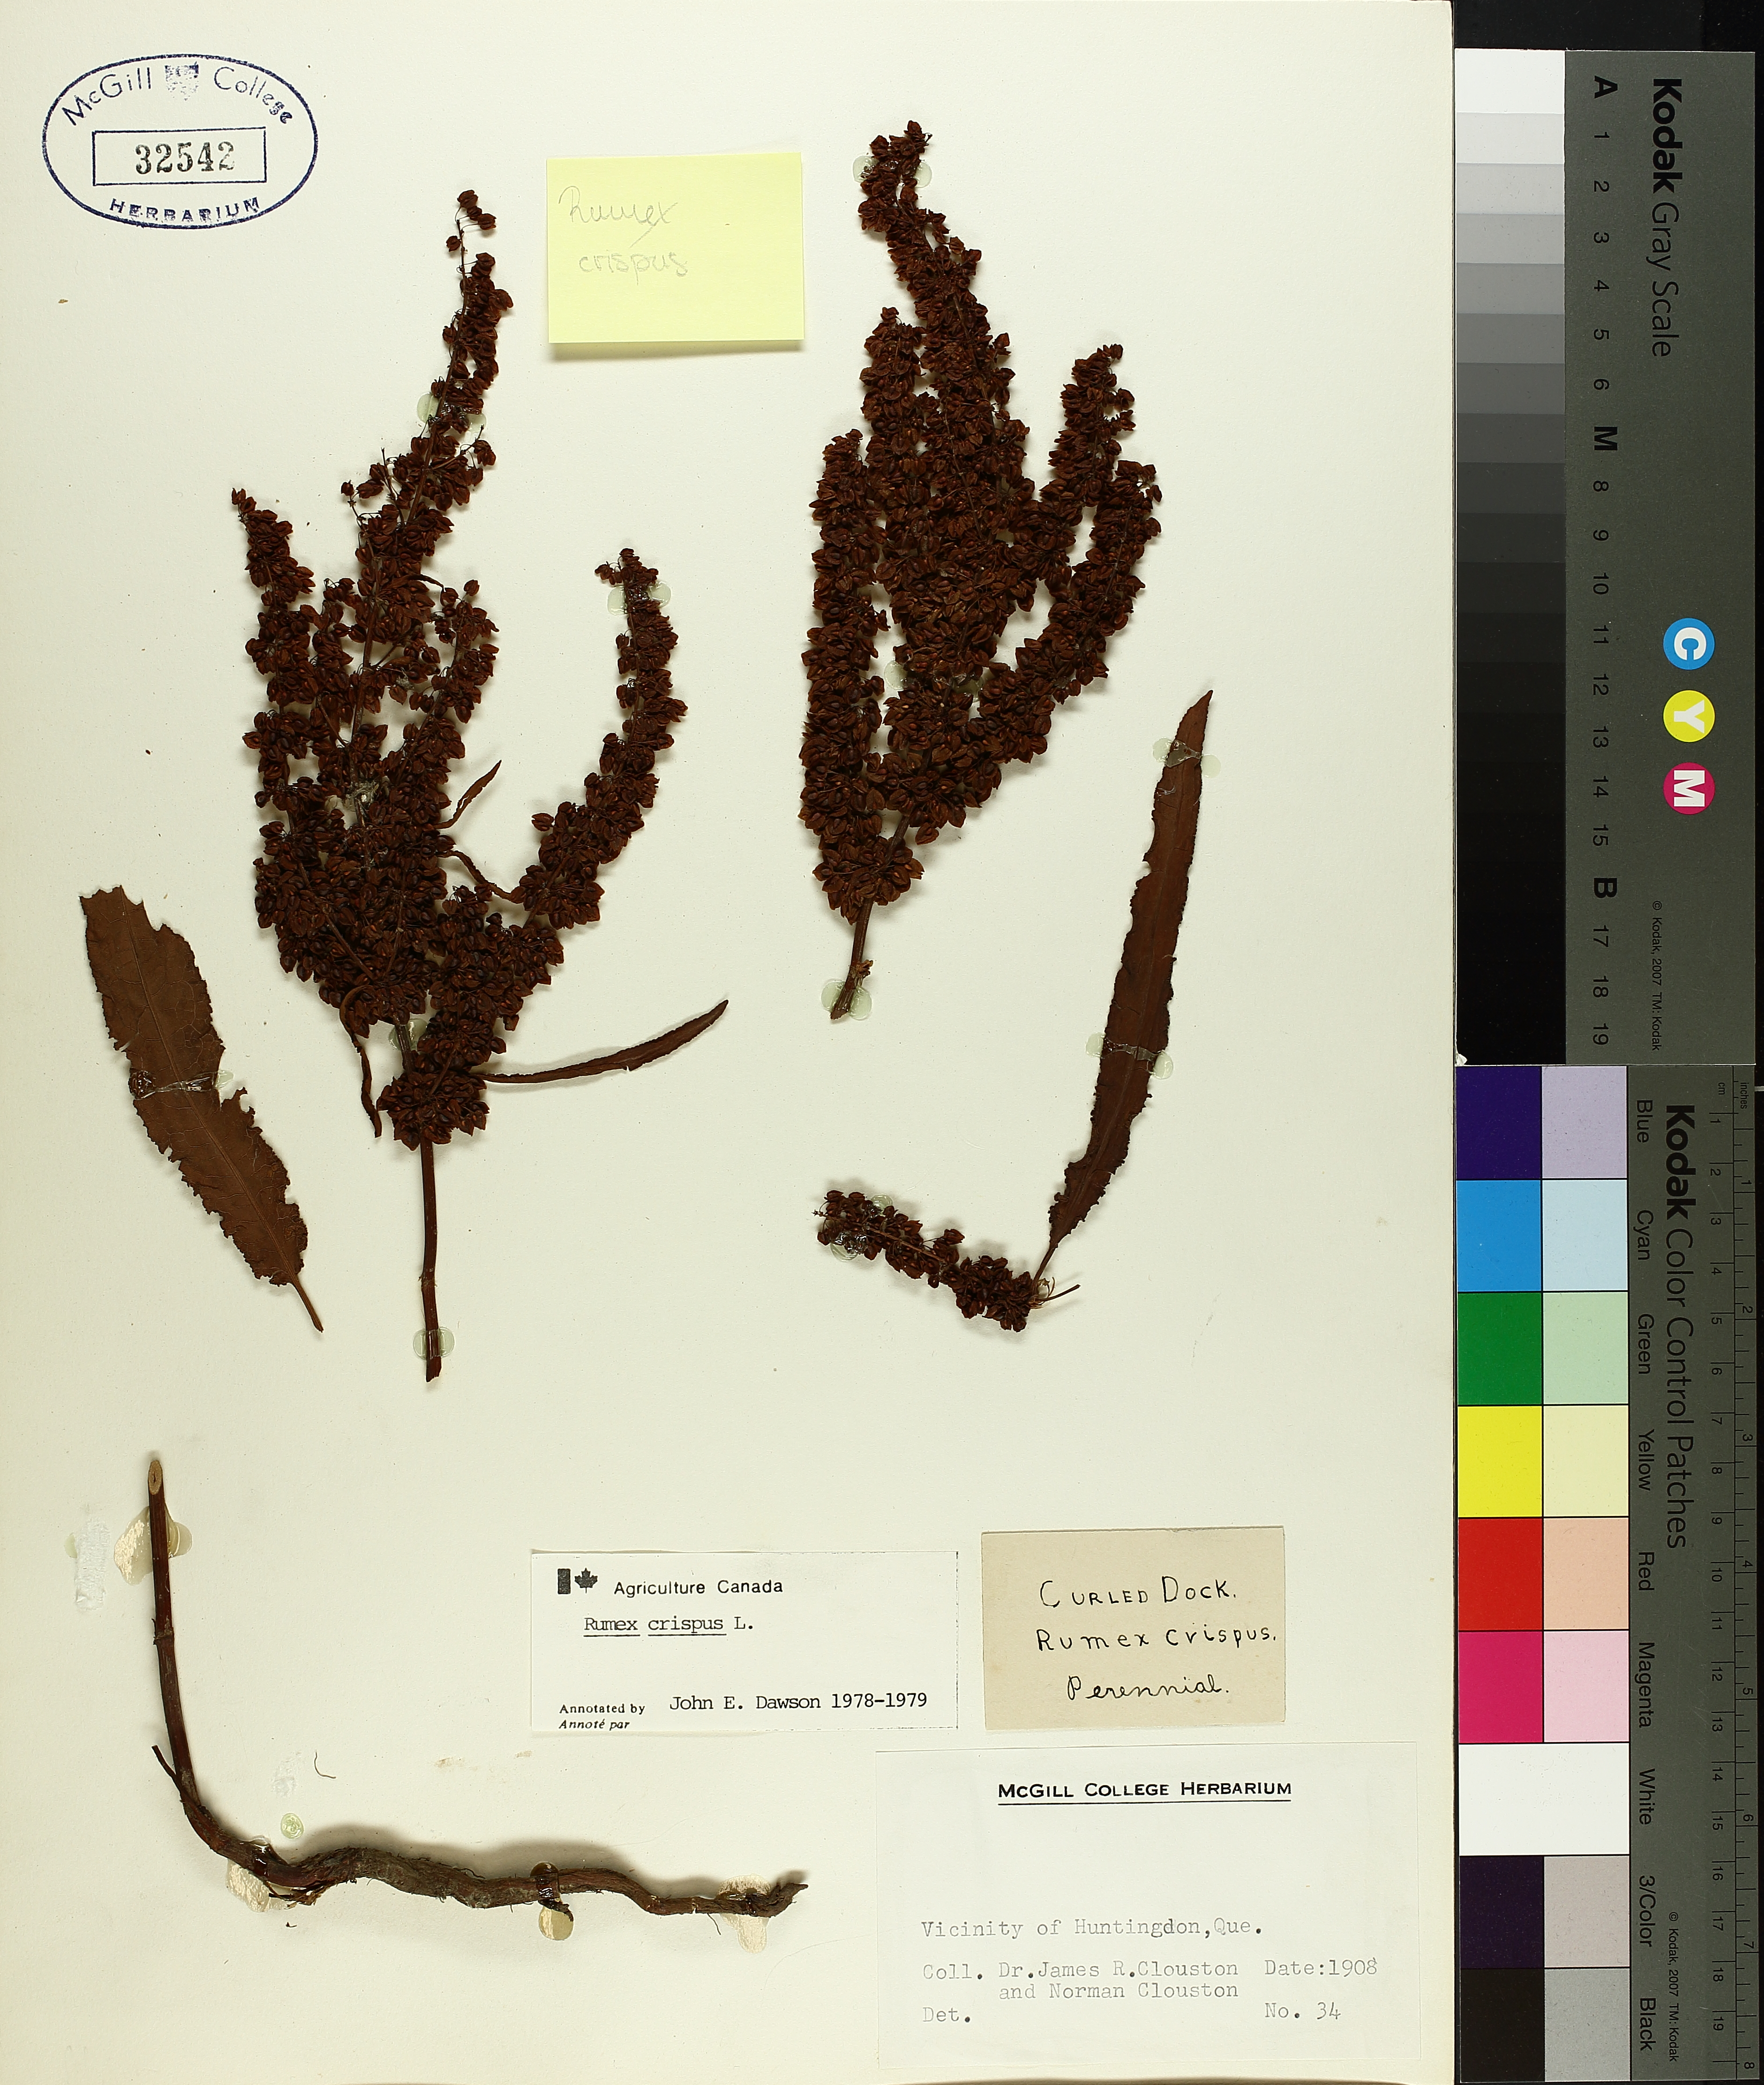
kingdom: Plantae
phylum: Tracheophyta
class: Magnoliopsida
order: Caryophyllales
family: Polygonaceae
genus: Rumex
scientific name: Rumex crispus
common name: Curled dock
